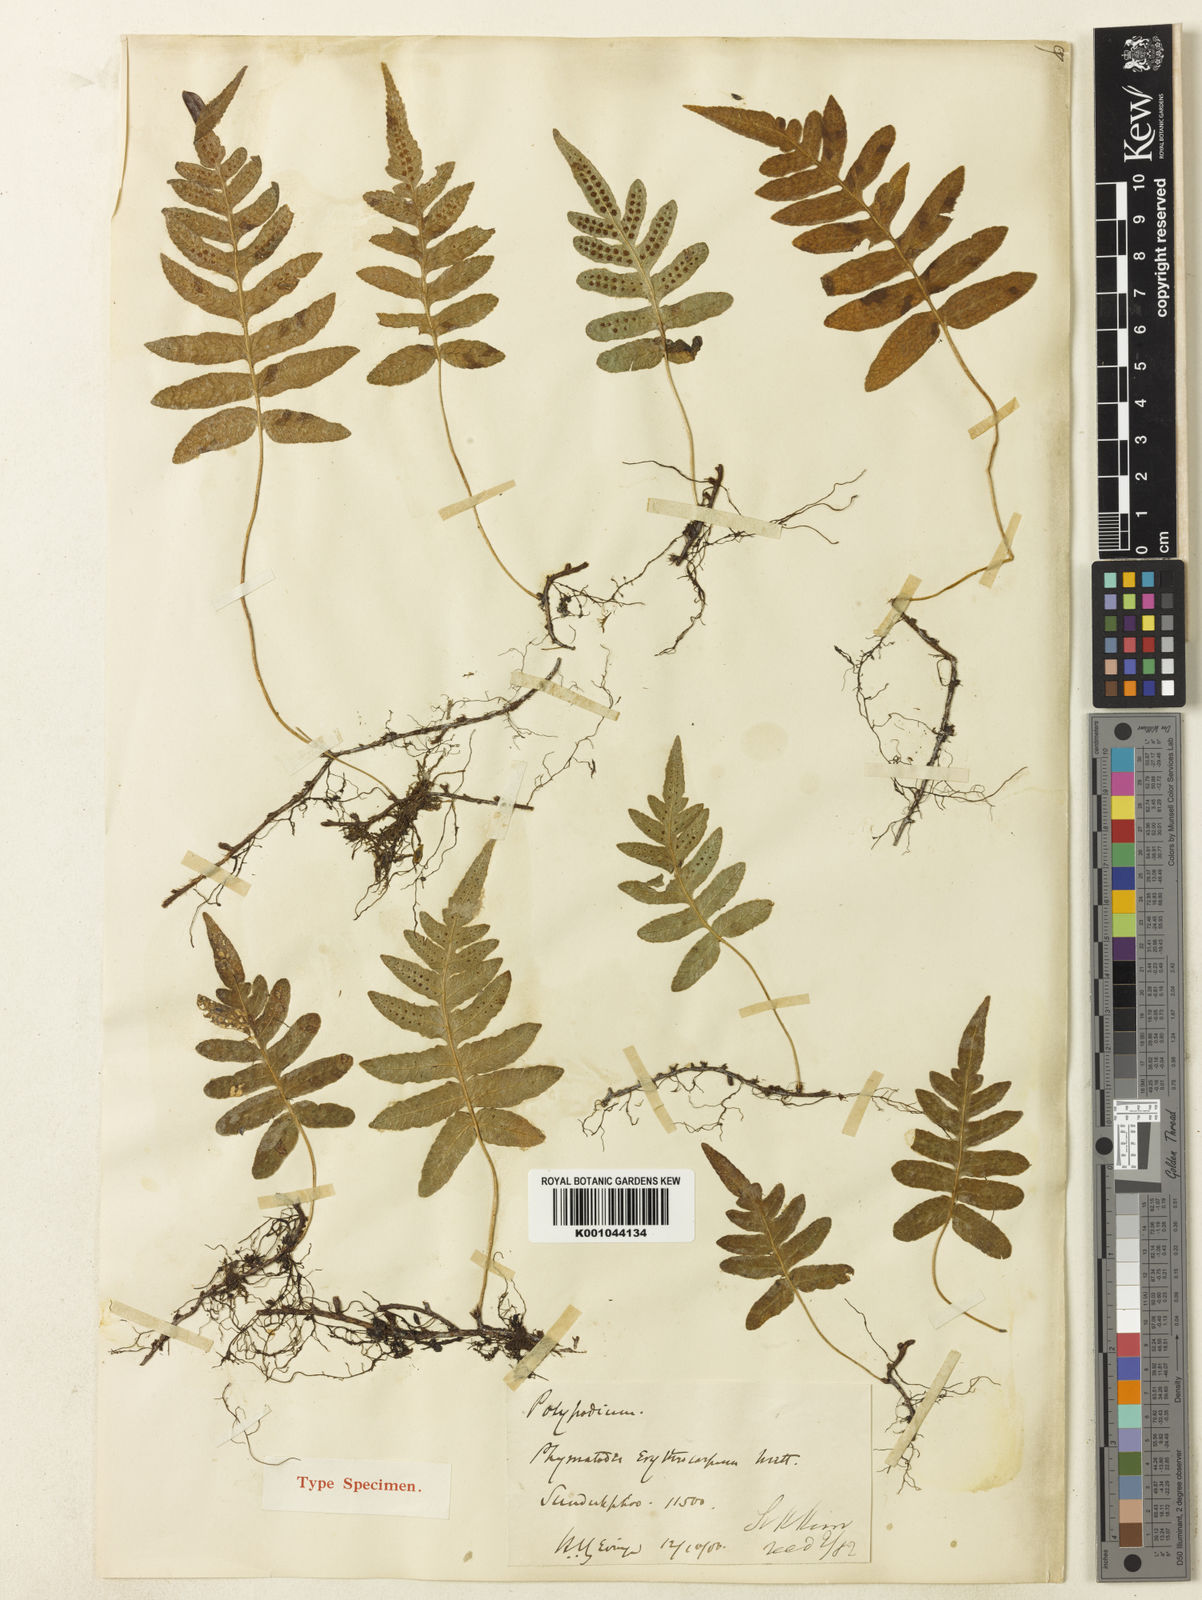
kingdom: Plantae
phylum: Tracheophyta
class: Polypodiopsida
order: Polypodiales
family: Polypodiaceae
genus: Selliguea
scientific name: Selliguea erythrocarpa
